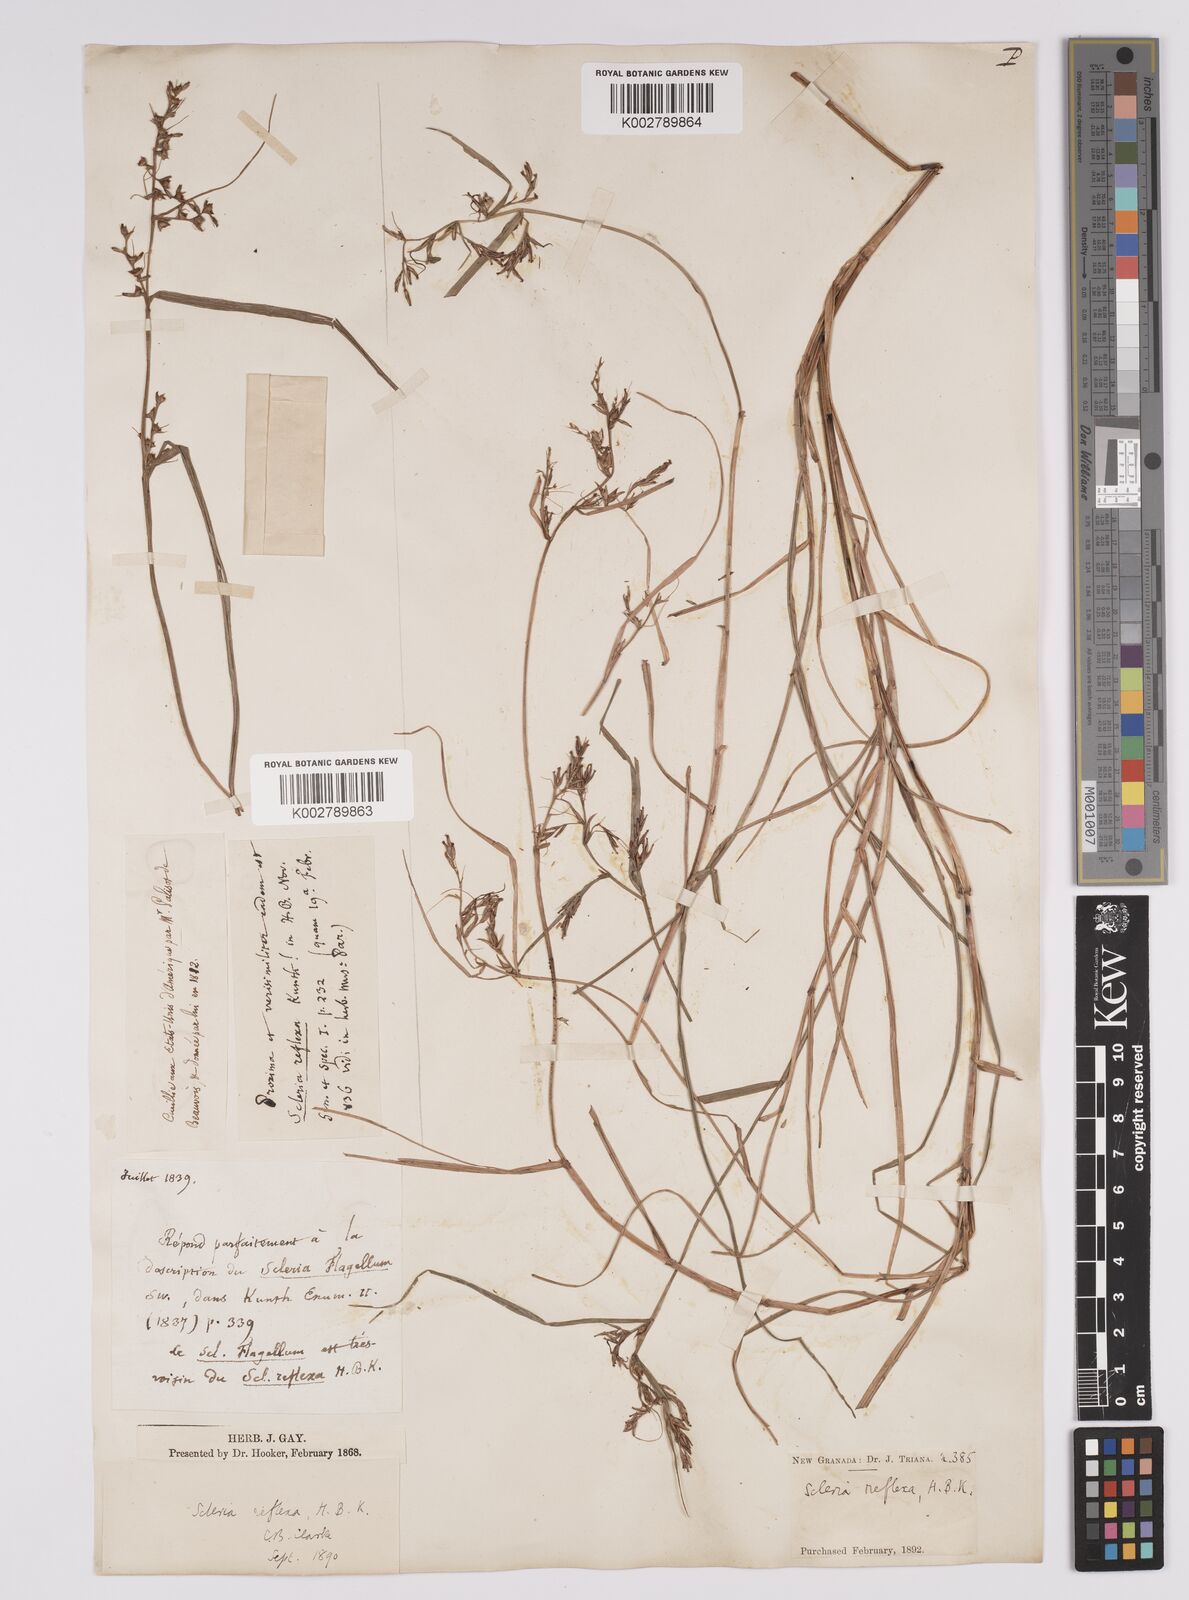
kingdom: Plantae
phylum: Tracheophyta
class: Liliopsida
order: Poales
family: Cyperaceae
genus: Scleria
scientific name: Scleria
